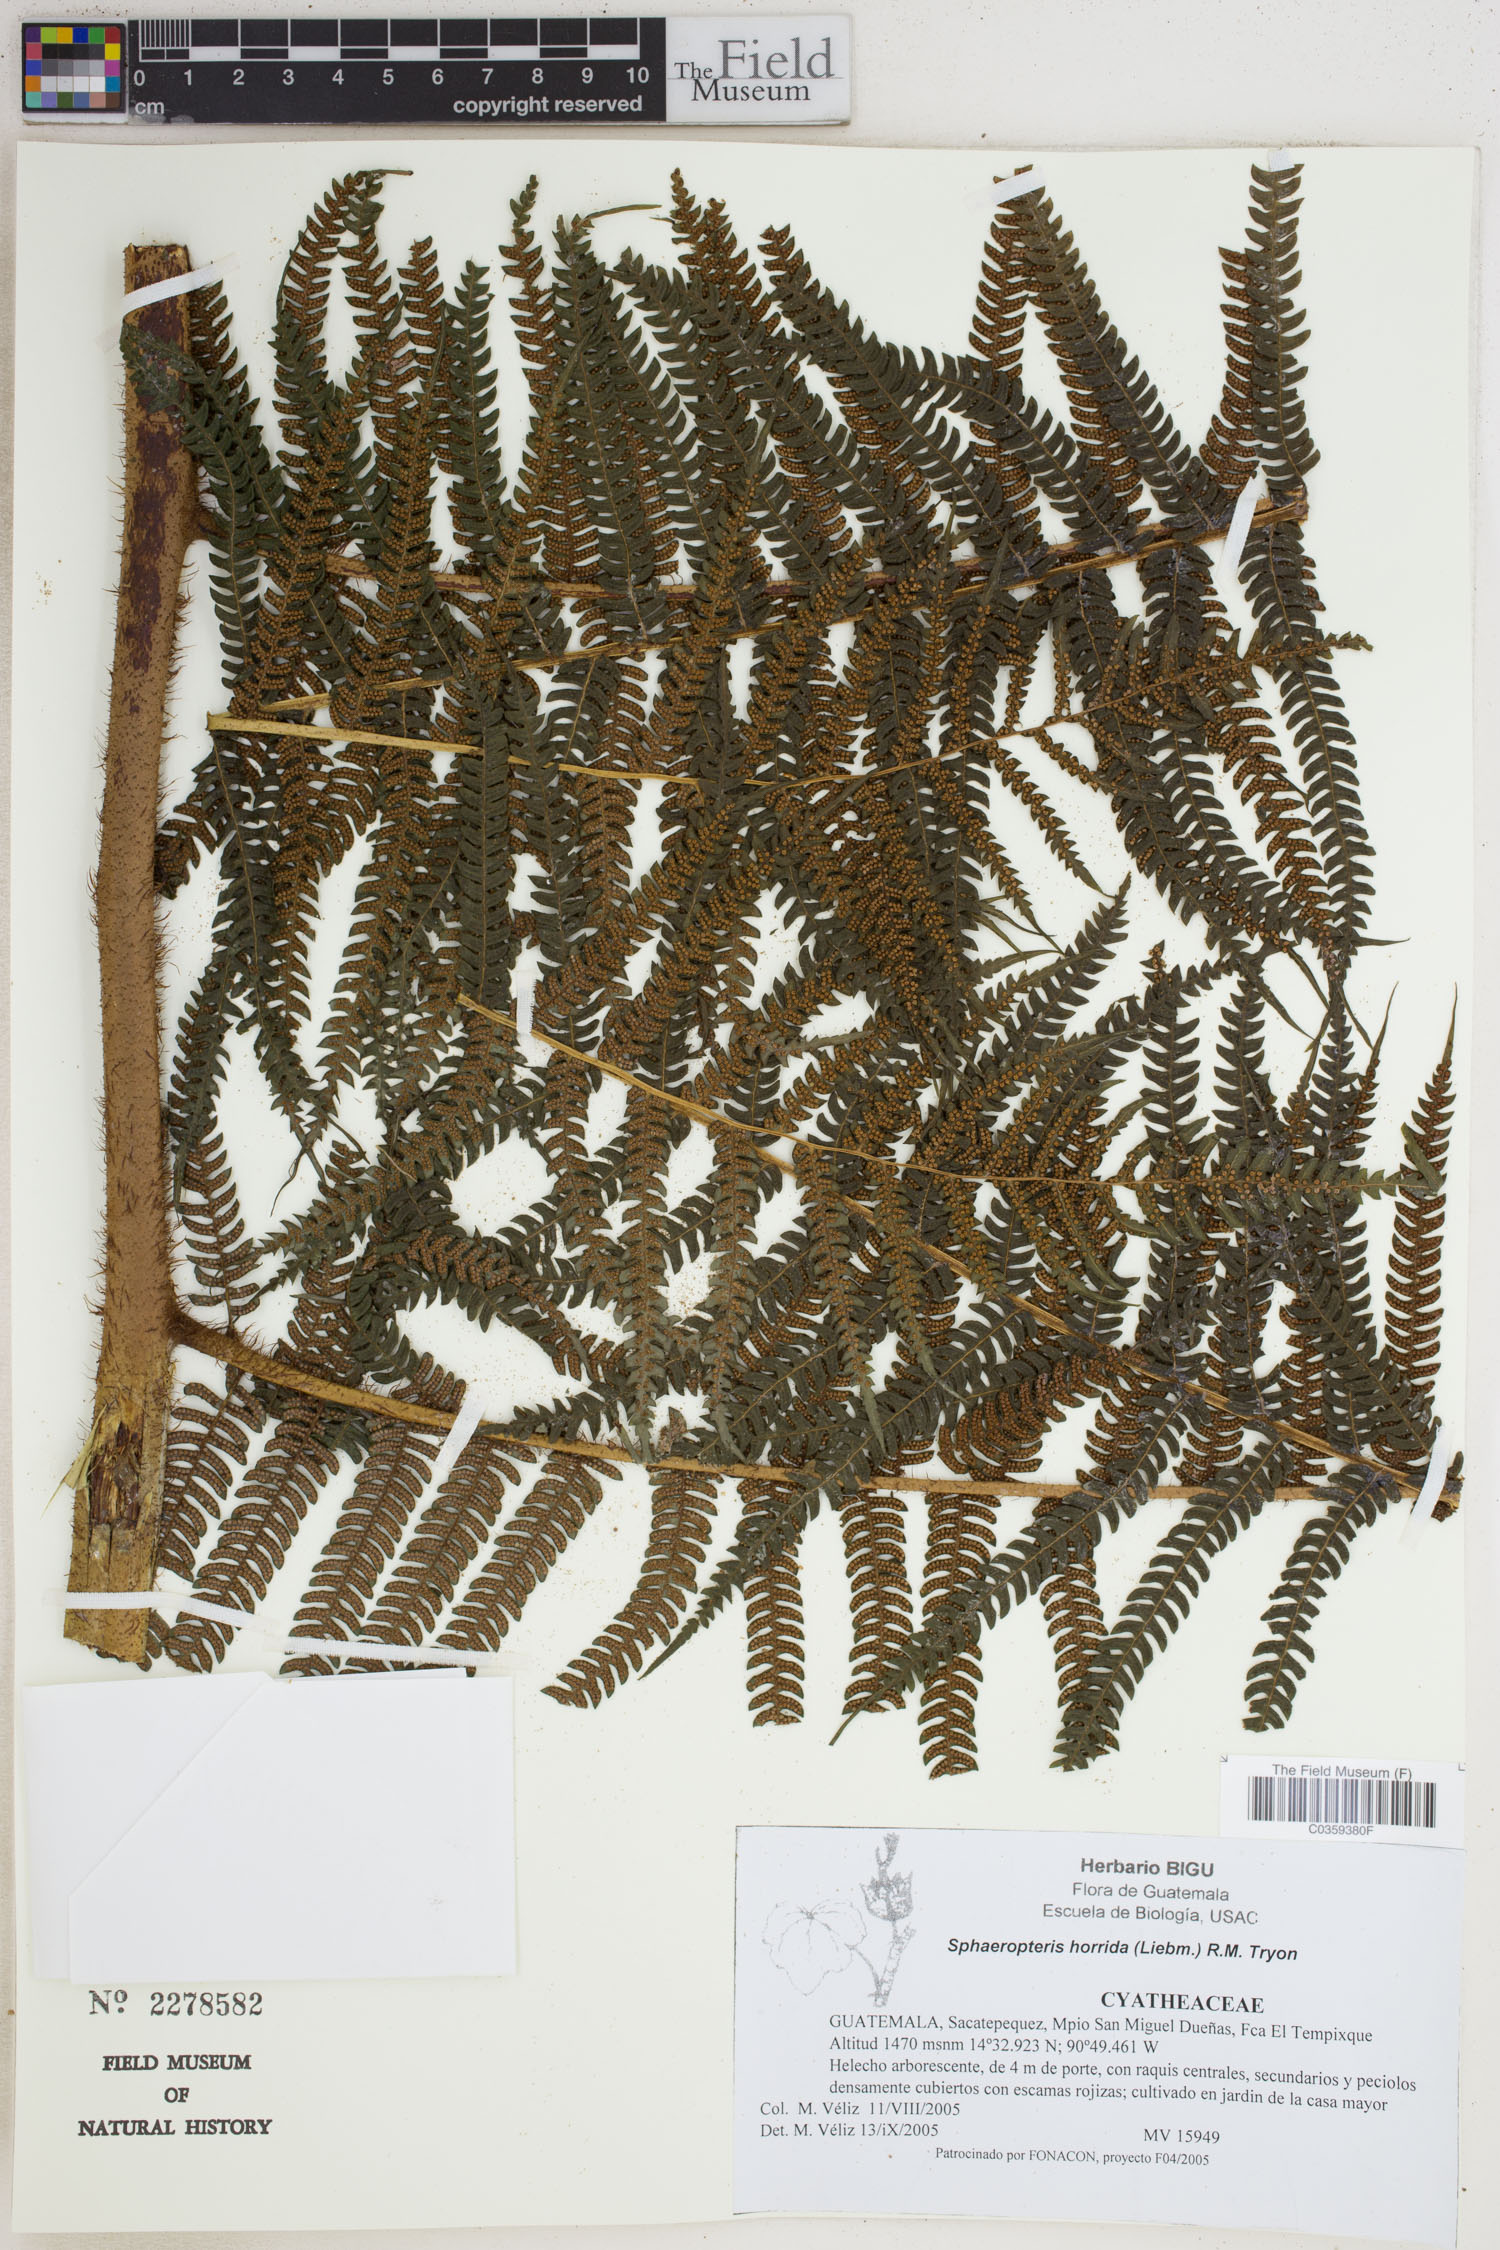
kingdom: Plantae
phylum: Tracheophyta
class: Polypodiopsida
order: Cyatheales
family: Cyatheaceae
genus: Sphaeropteris
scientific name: Sphaeropteris horrida
